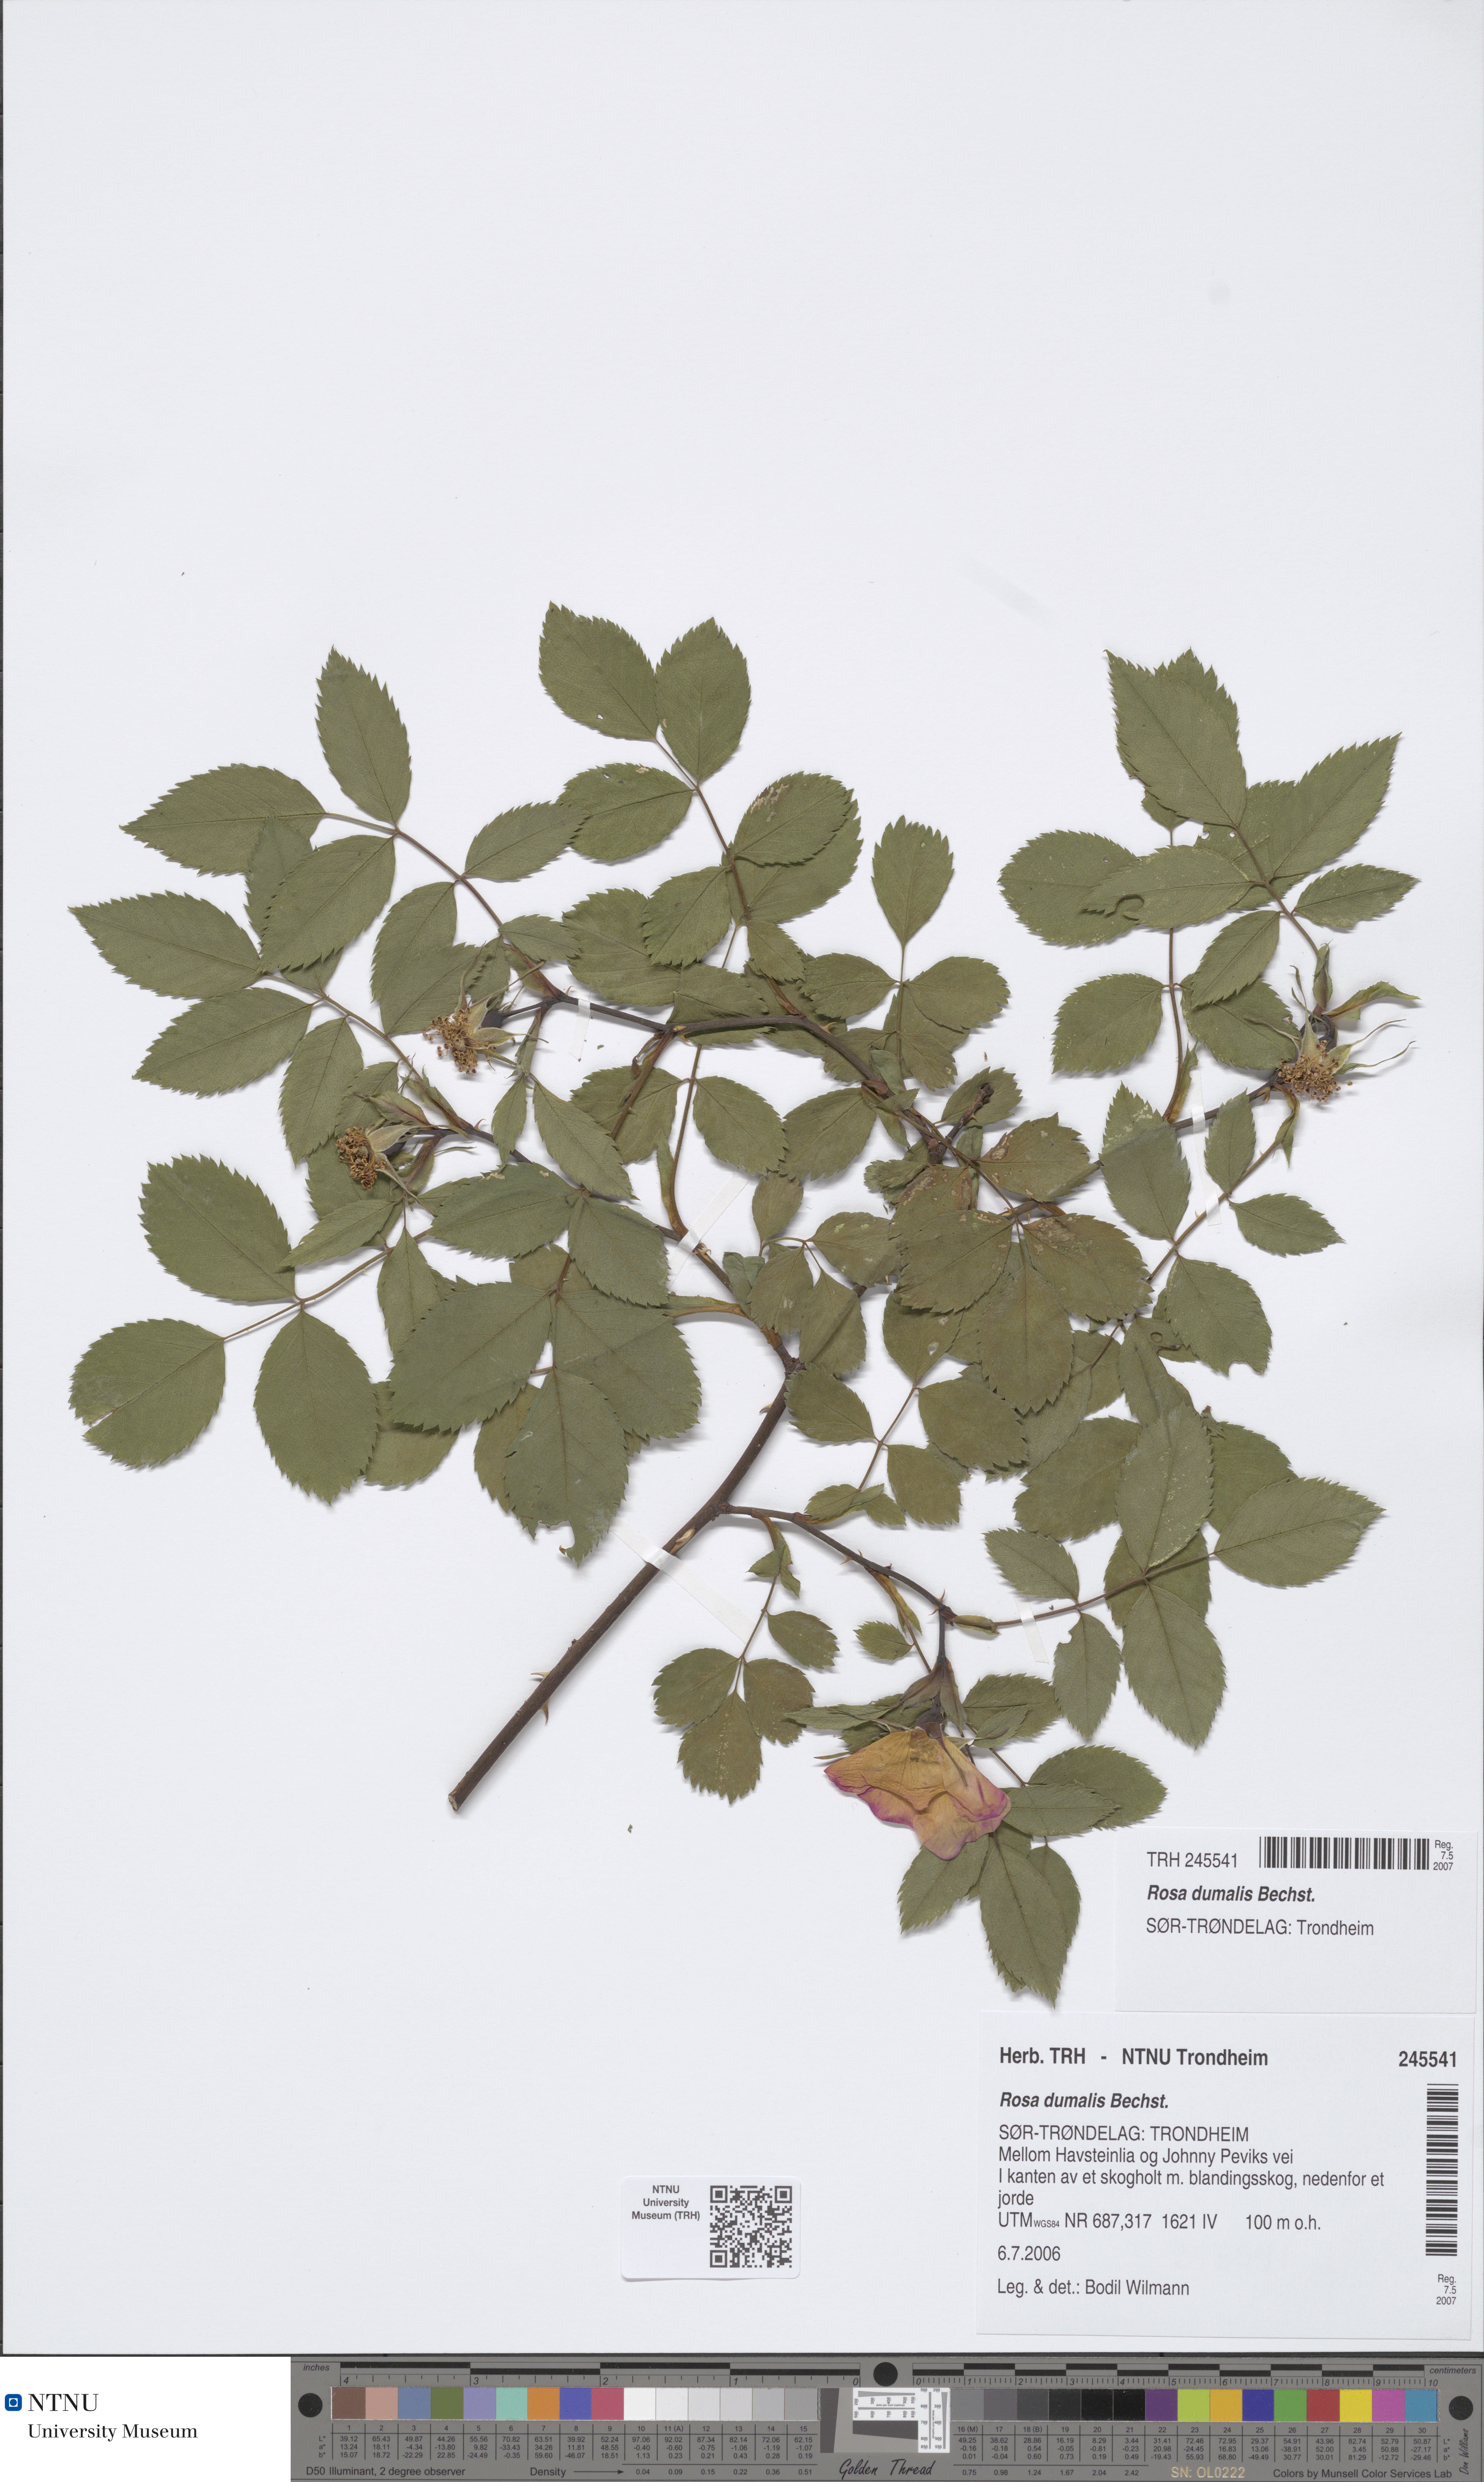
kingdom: Plantae
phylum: Tracheophyta
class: Magnoliopsida
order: Rosales
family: Rosaceae
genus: Rosa
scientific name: Rosa dumalis
